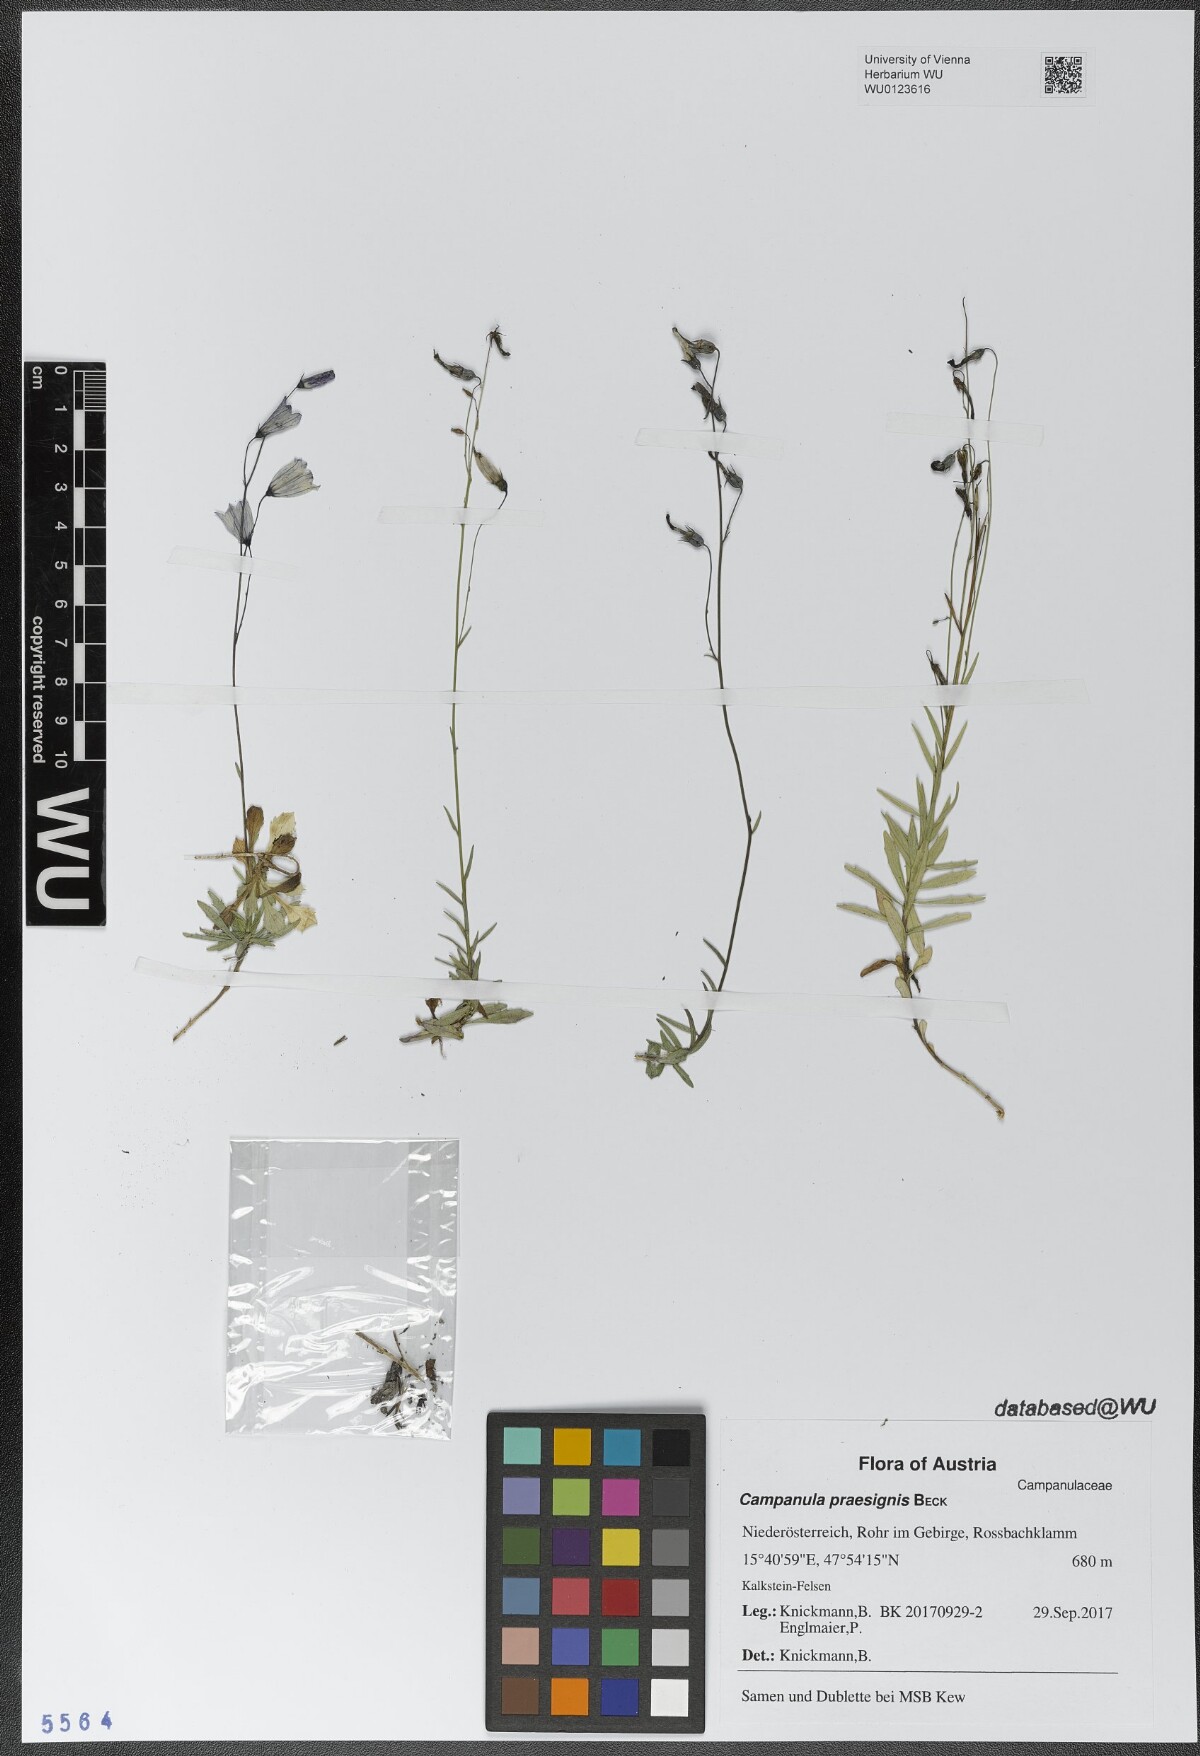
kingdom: Plantae
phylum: Tracheophyta
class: Magnoliopsida
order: Asterales
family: Campanulaceae
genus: Campanula
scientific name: Campanula praesignis
